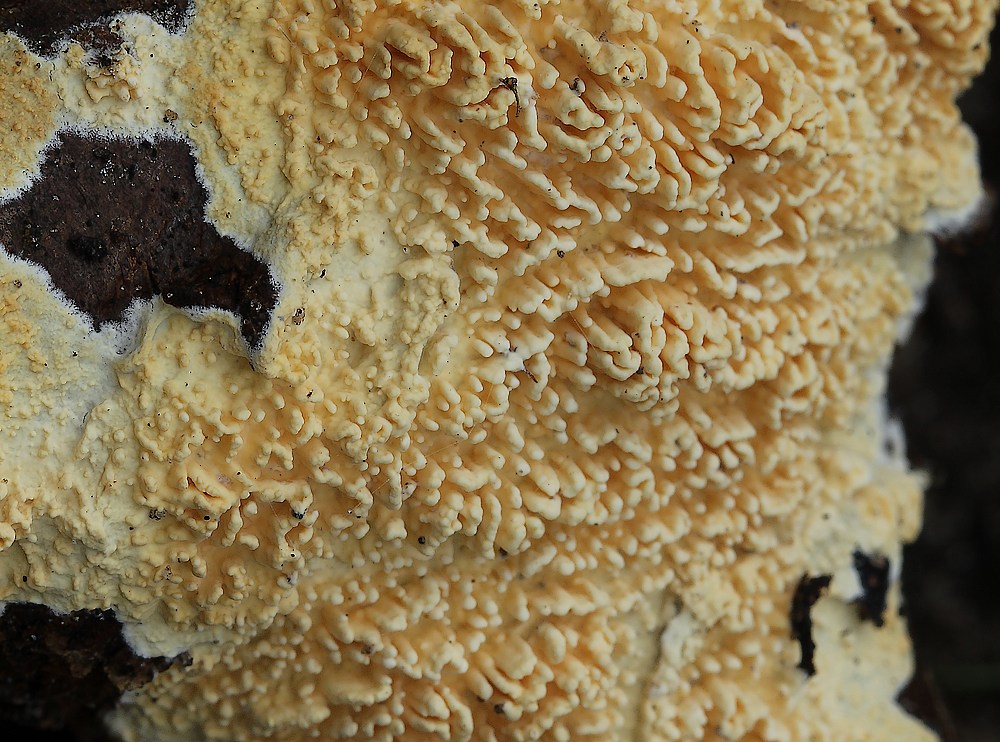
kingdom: Fungi
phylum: Basidiomycota
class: Agaricomycetes
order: Hymenochaetales
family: Schizoporaceae
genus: Xylodon
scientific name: Xylodon radula
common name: grovtandet kalkskind
